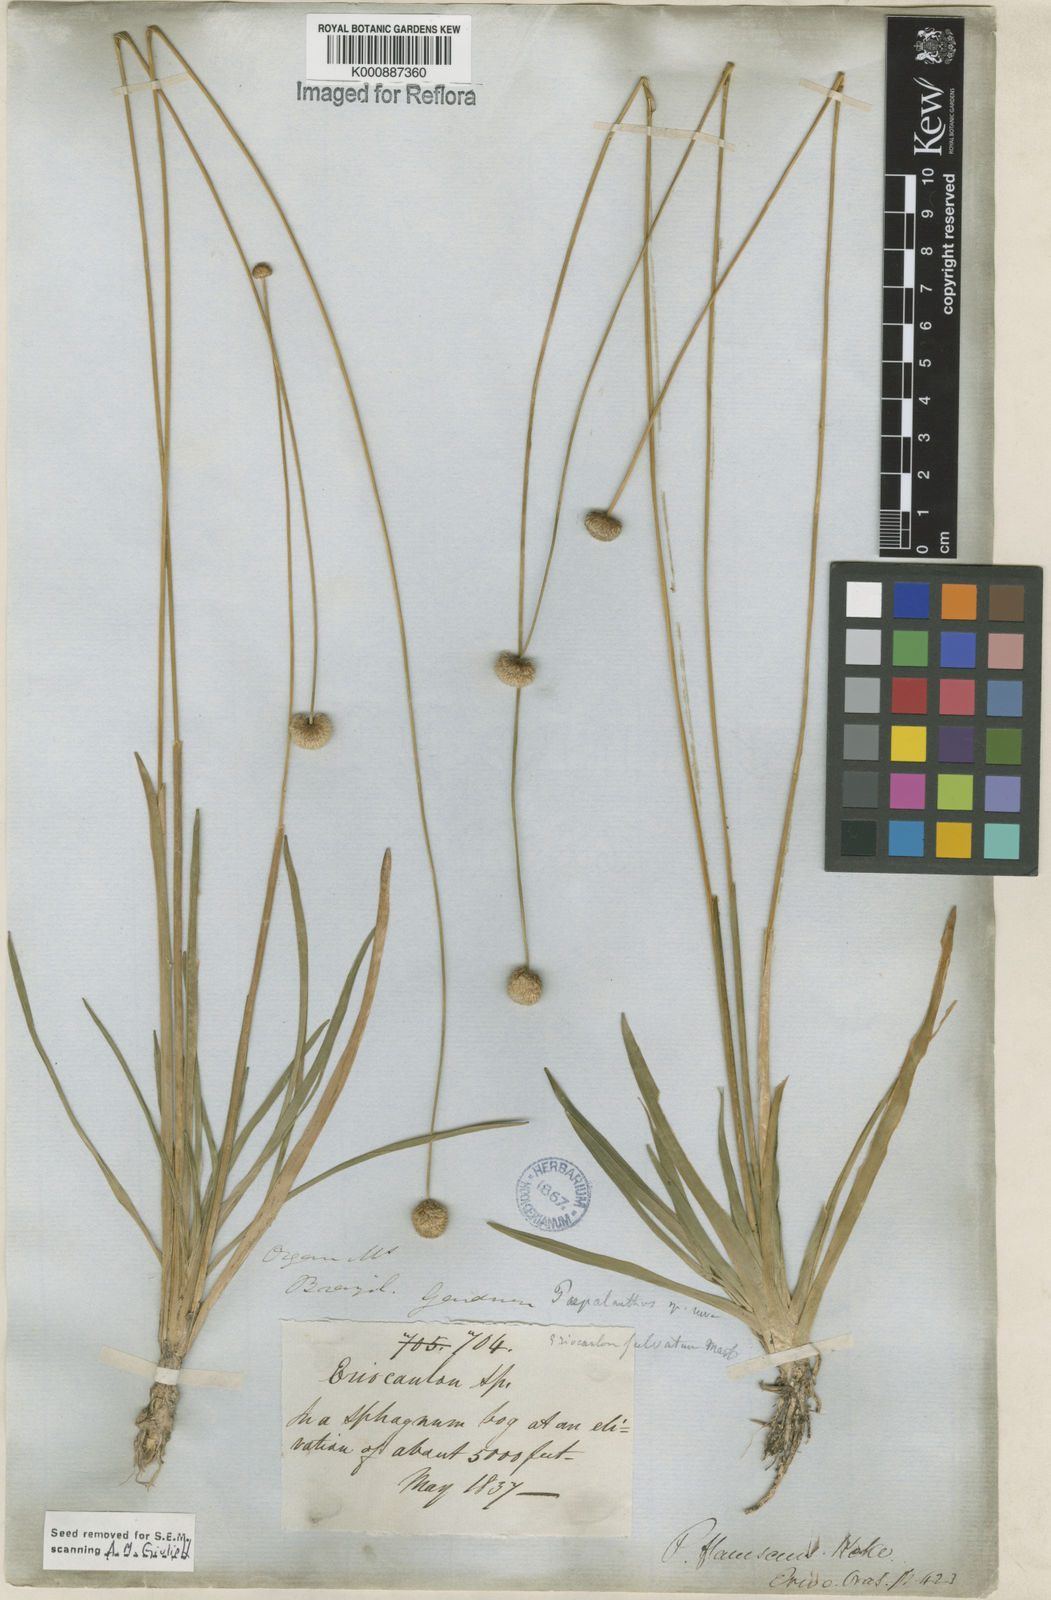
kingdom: Plantae
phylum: Tracheophyta
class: Liliopsida
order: Poales
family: Eriocaulaceae
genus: Leiothrix
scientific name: Leiothrix flavescens
